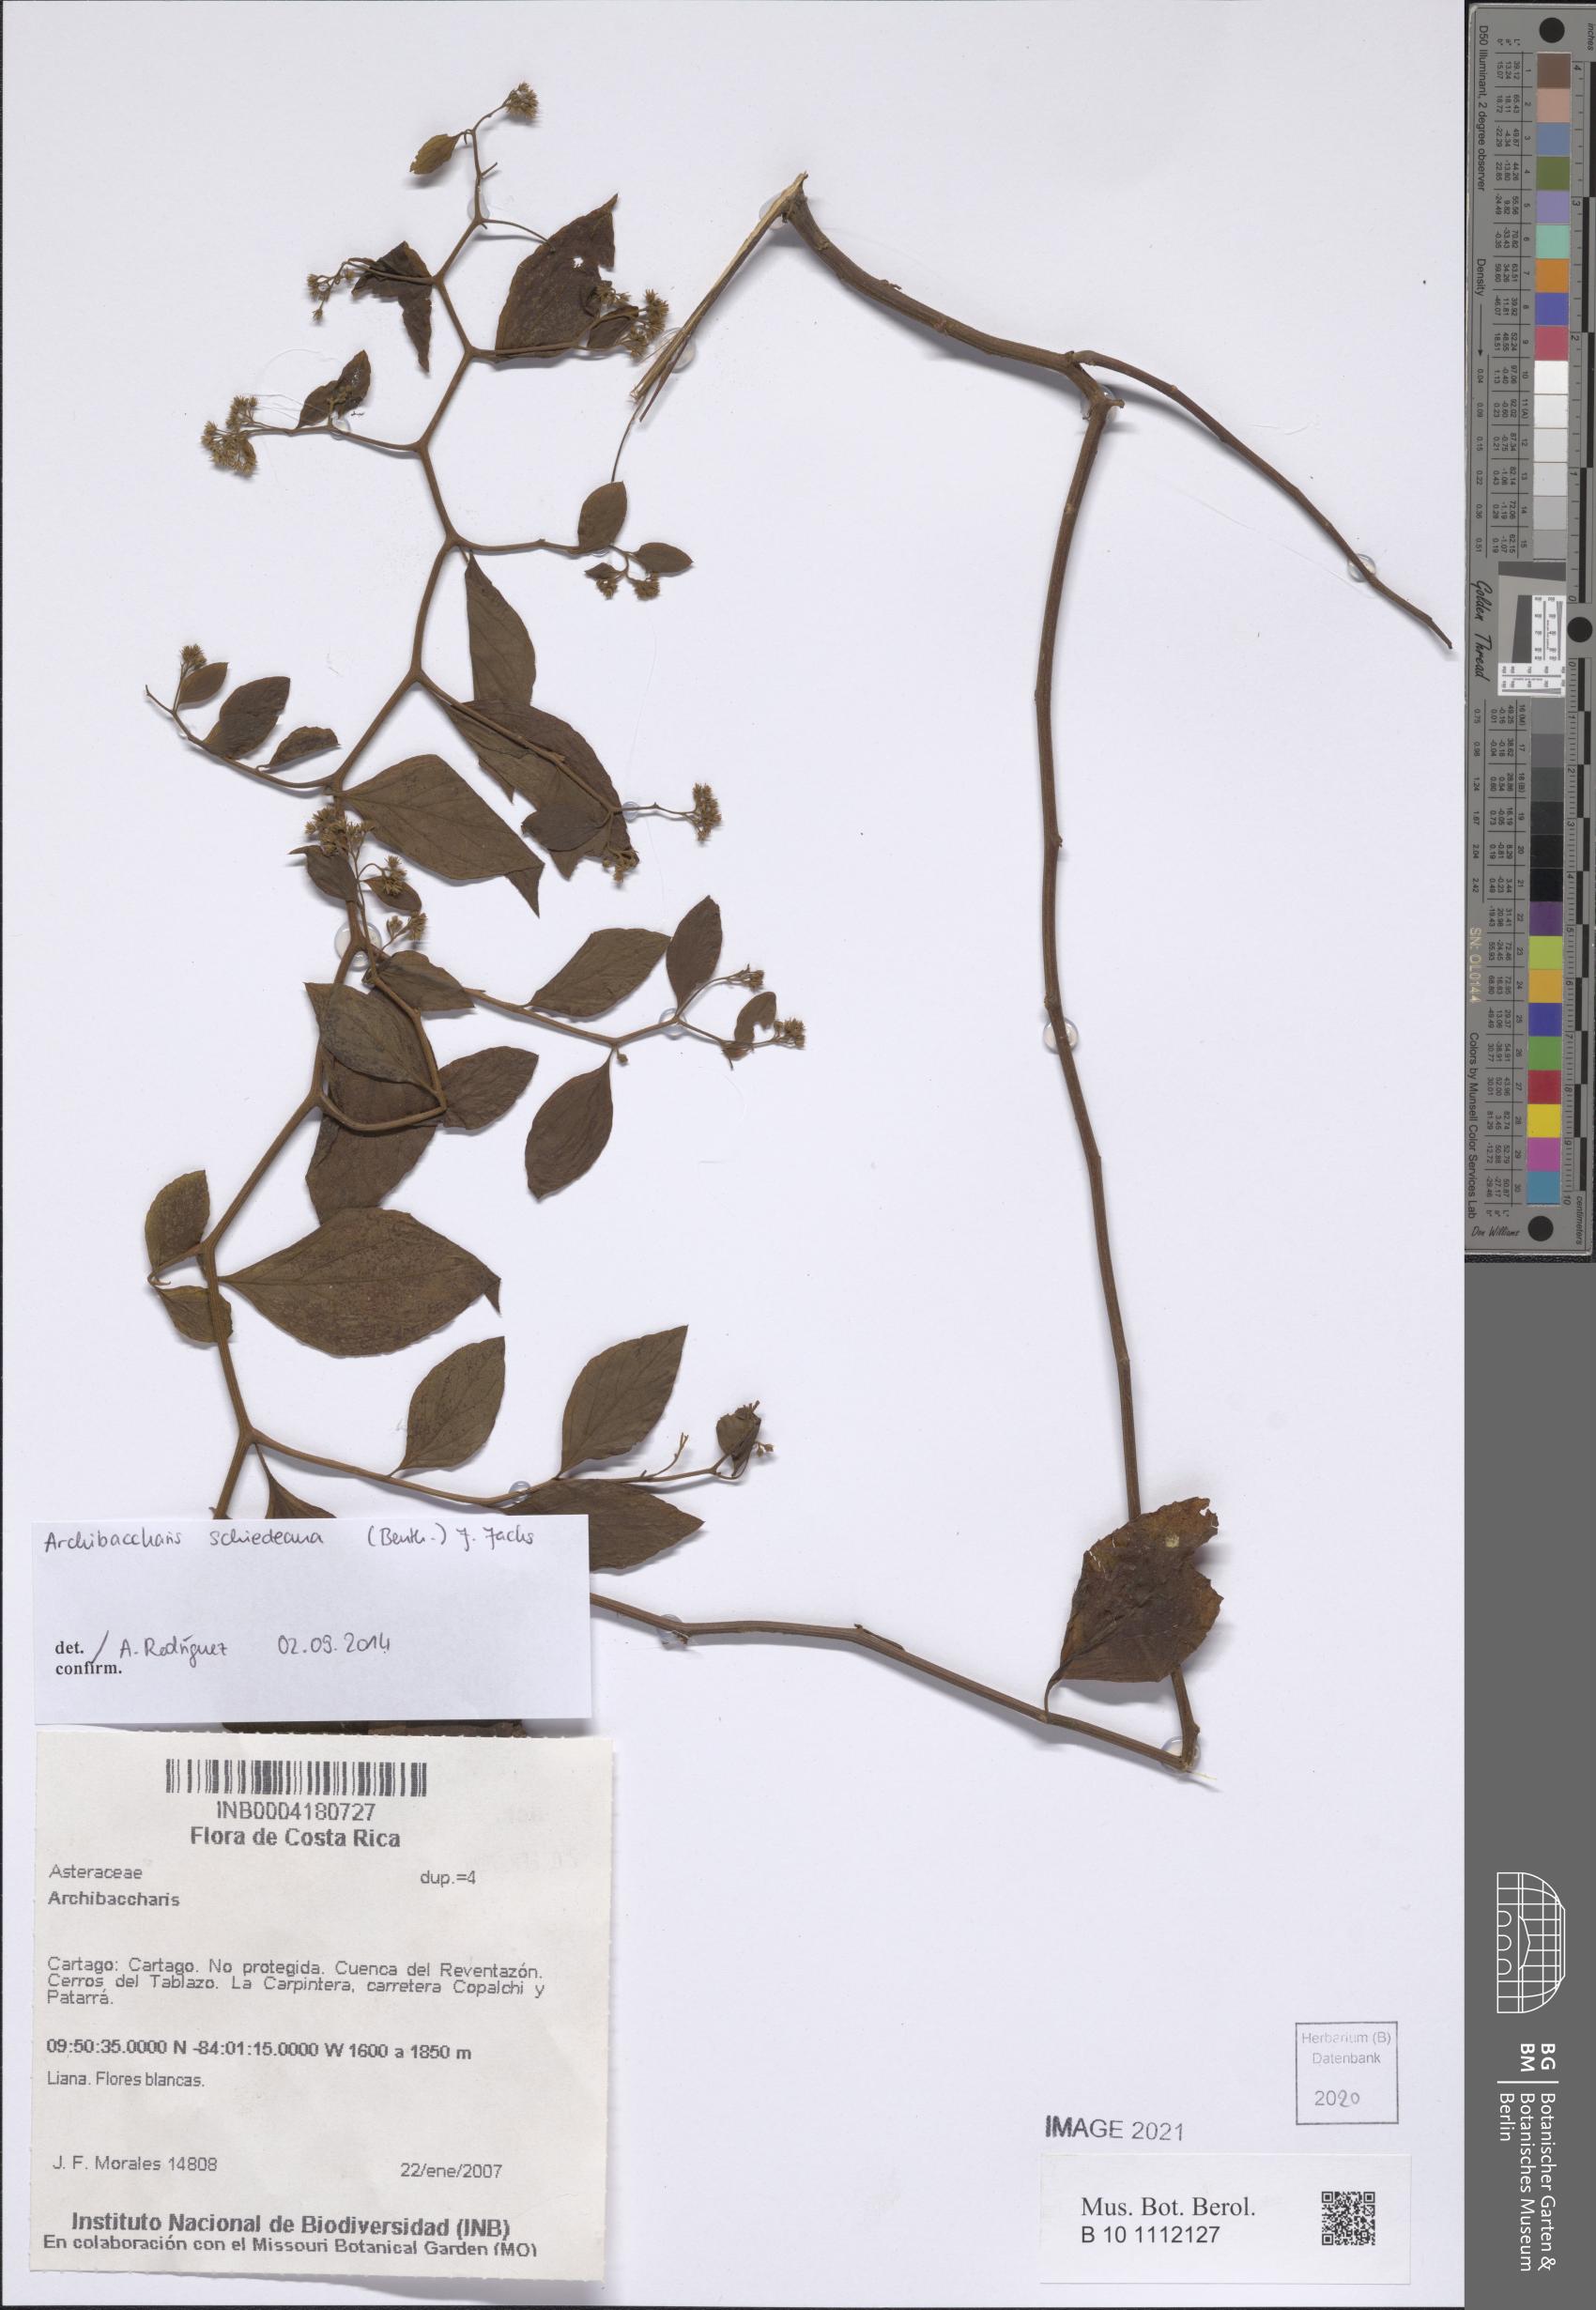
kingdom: Plantae
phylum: Tracheophyta
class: Magnoliopsida
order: Asterales
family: Asteraceae
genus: Archibaccharis
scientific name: Archibaccharis schiedeana
